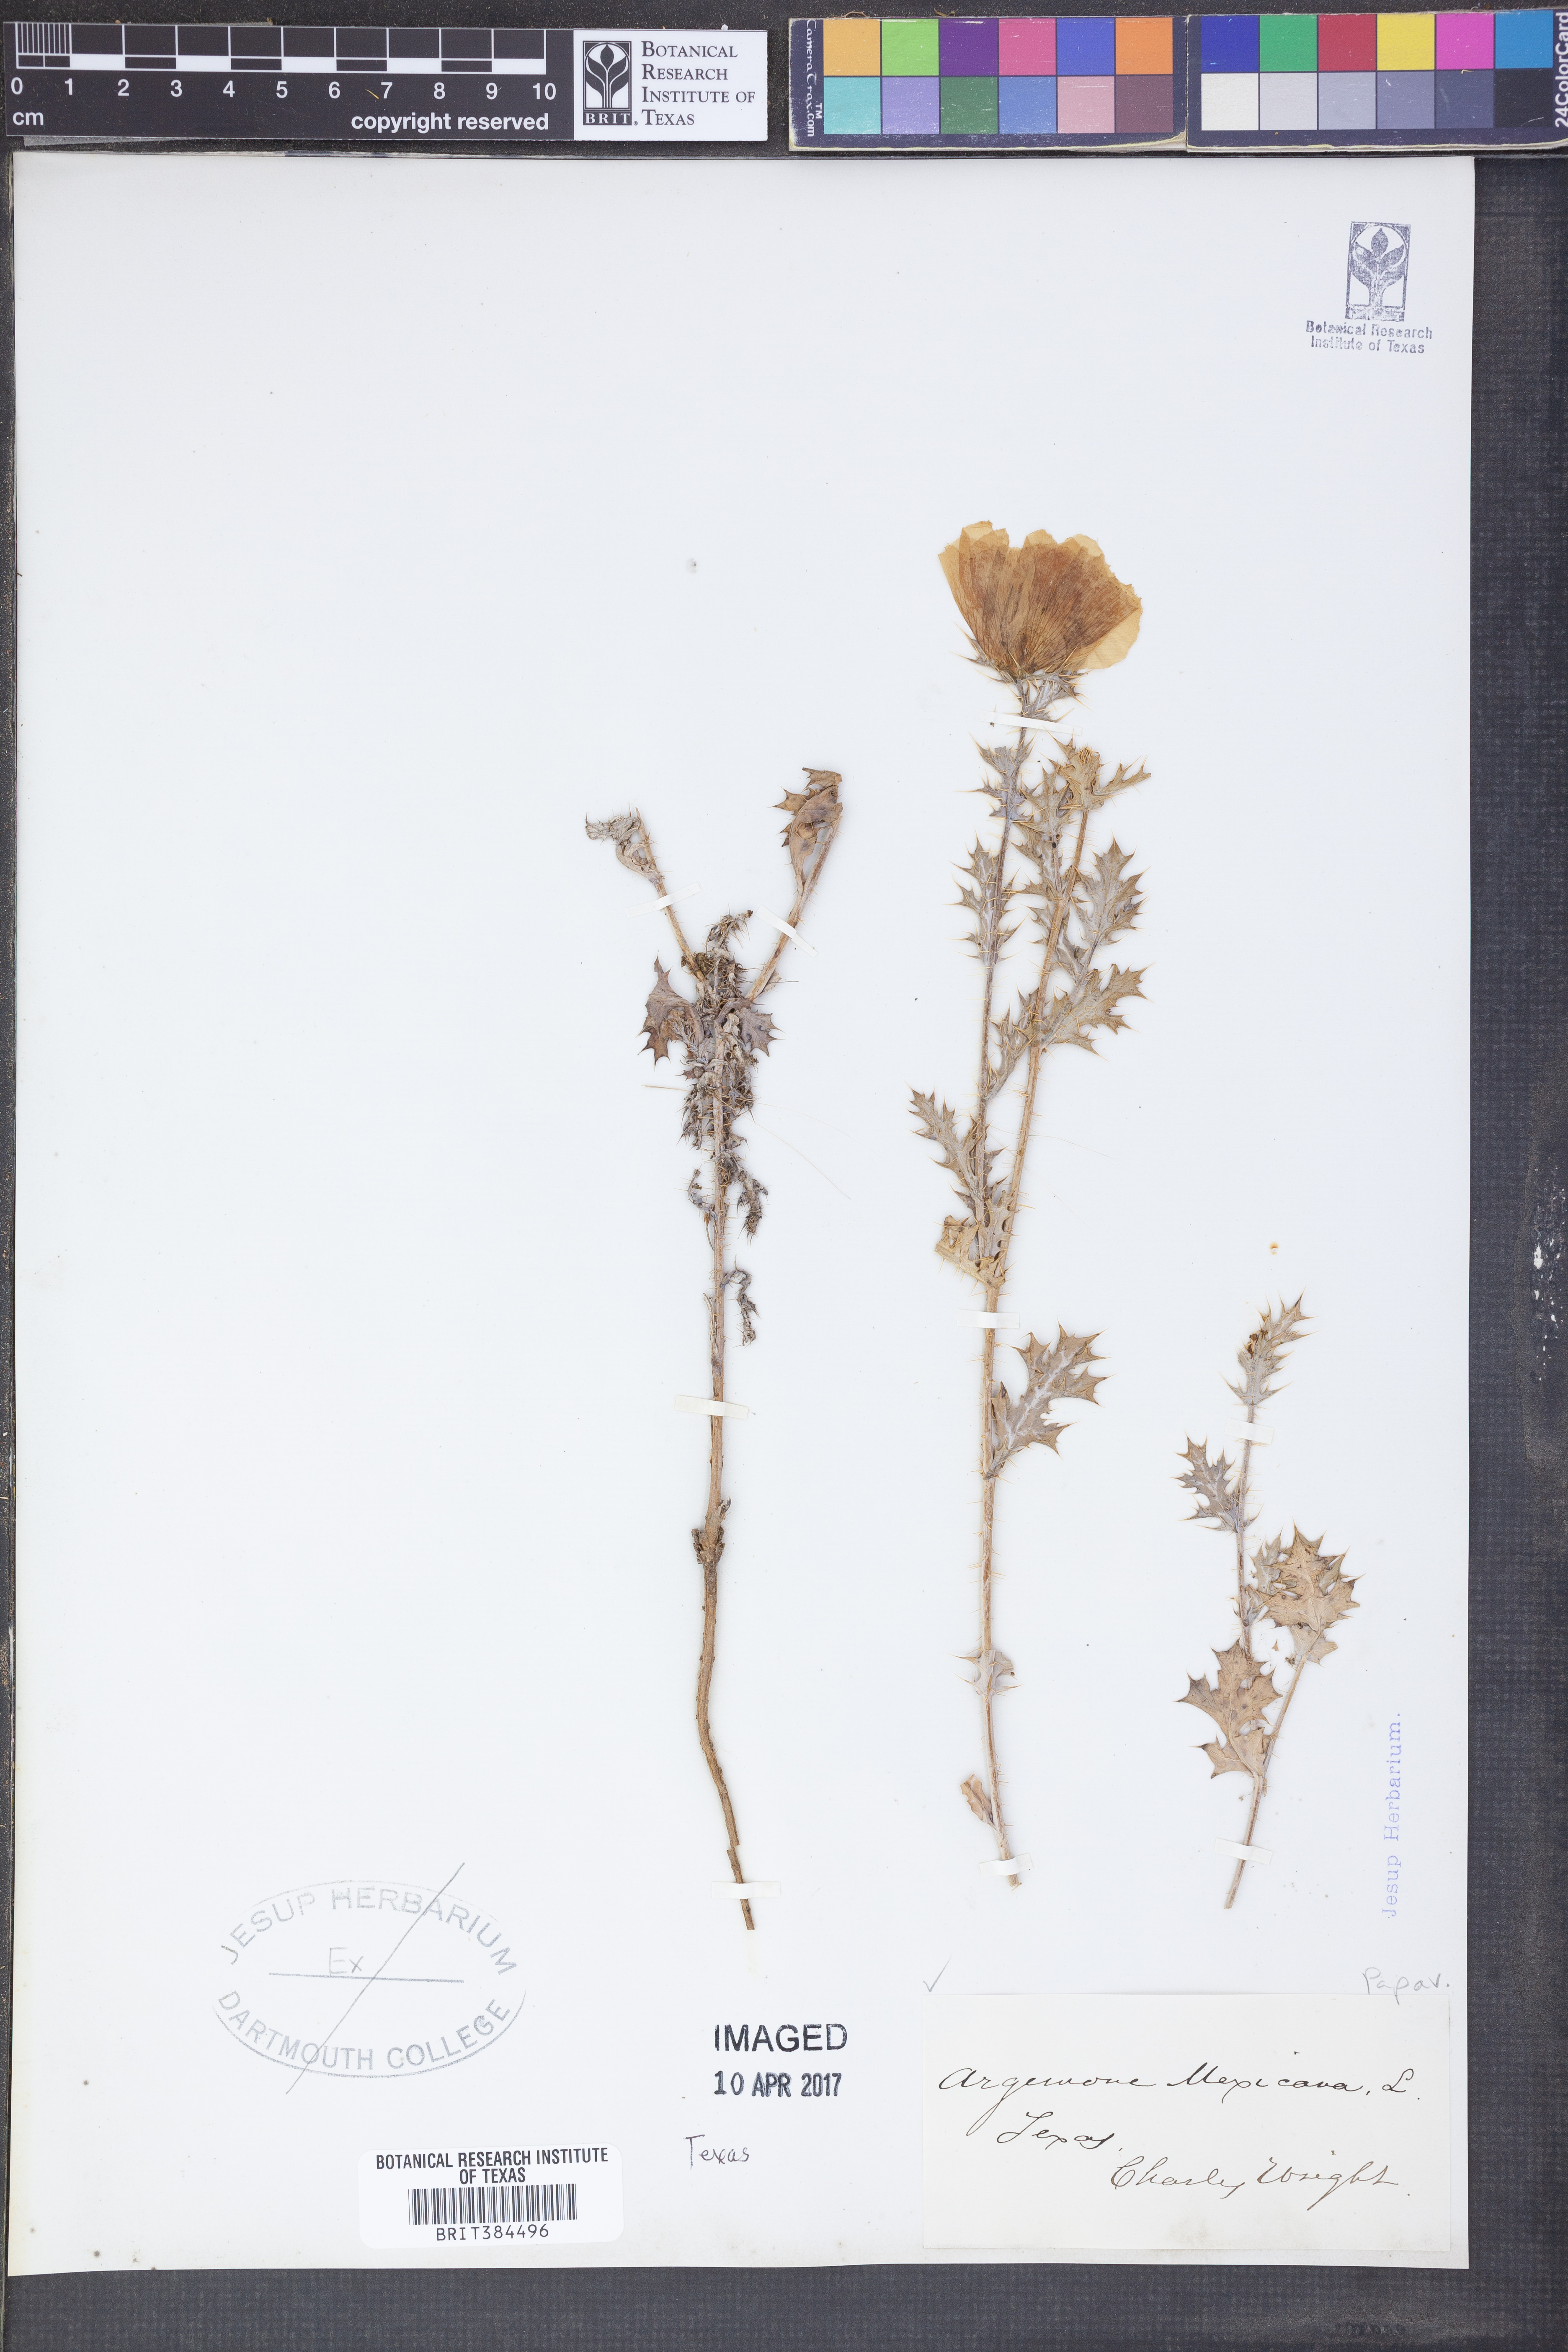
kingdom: Plantae
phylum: Tracheophyta
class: Magnoliopsida
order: Ranunculales
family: Papaveraceae
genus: Argemone
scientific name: Argemone mexicana
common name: Mexican poppy
